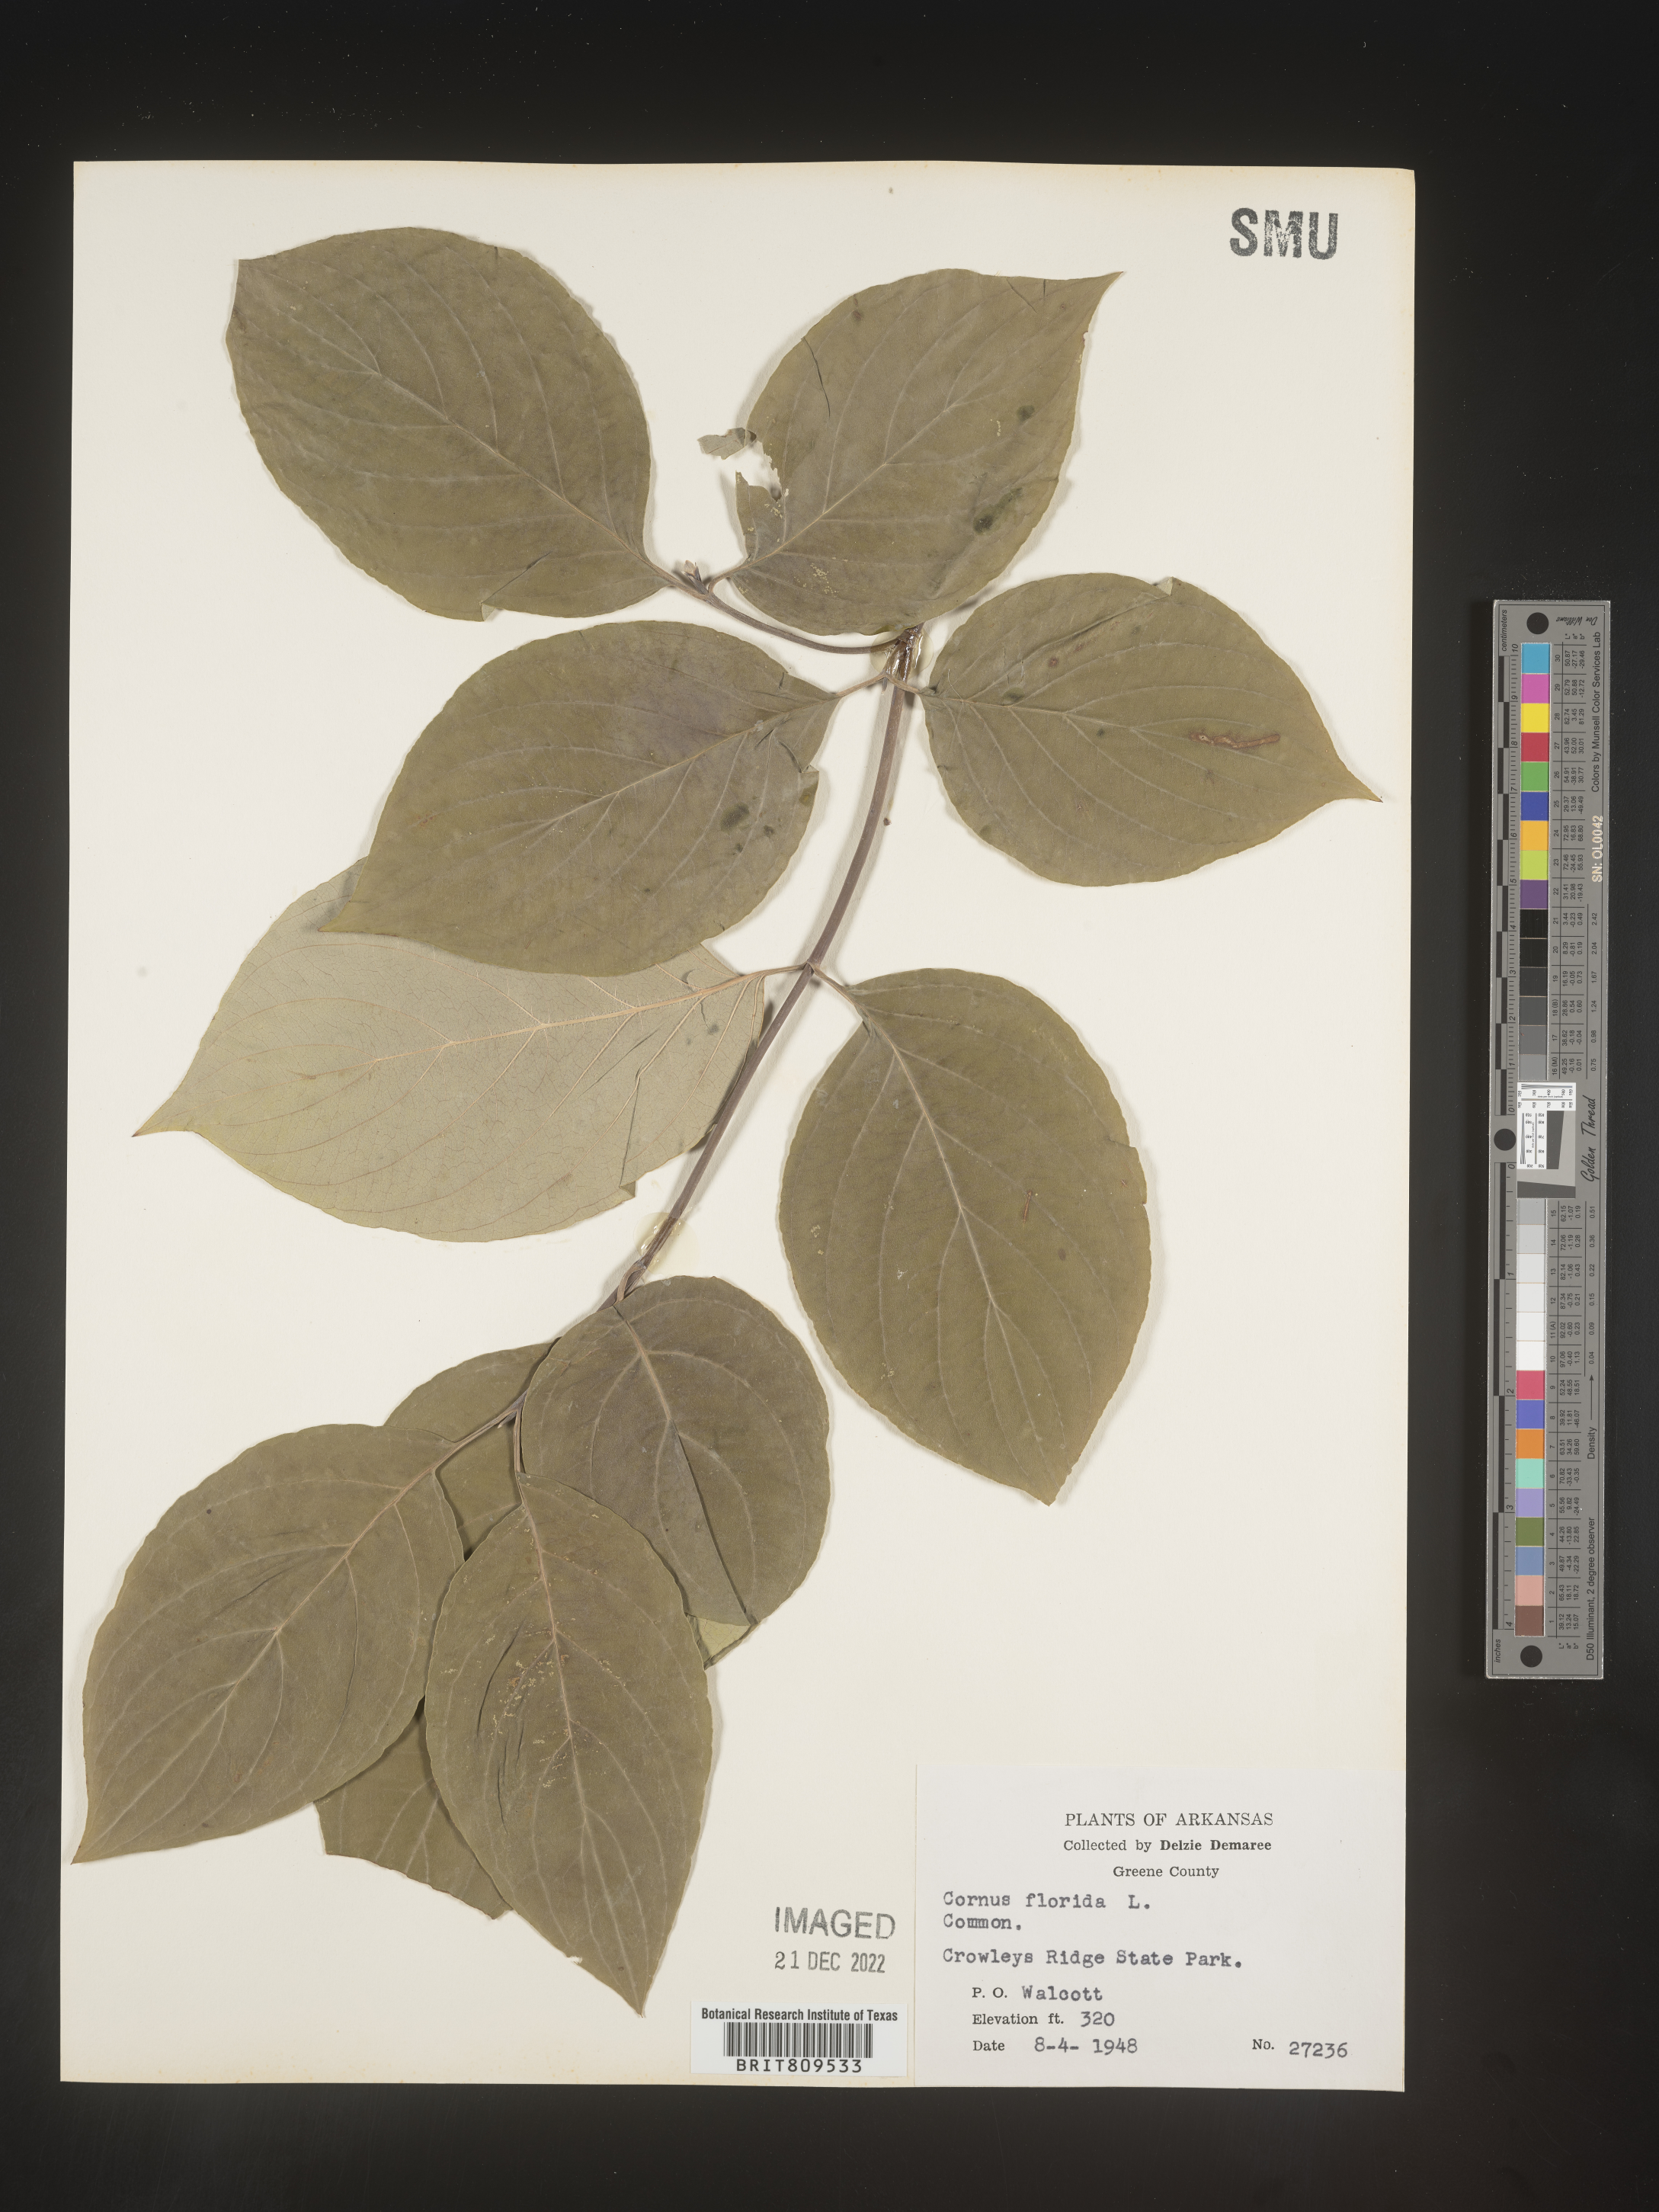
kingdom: Plantae
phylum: Tracheophyta
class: Magnoliopsida
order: Cornales
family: Cornaceae
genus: Cornus
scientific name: Cornus florida
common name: Flowering dogwood
